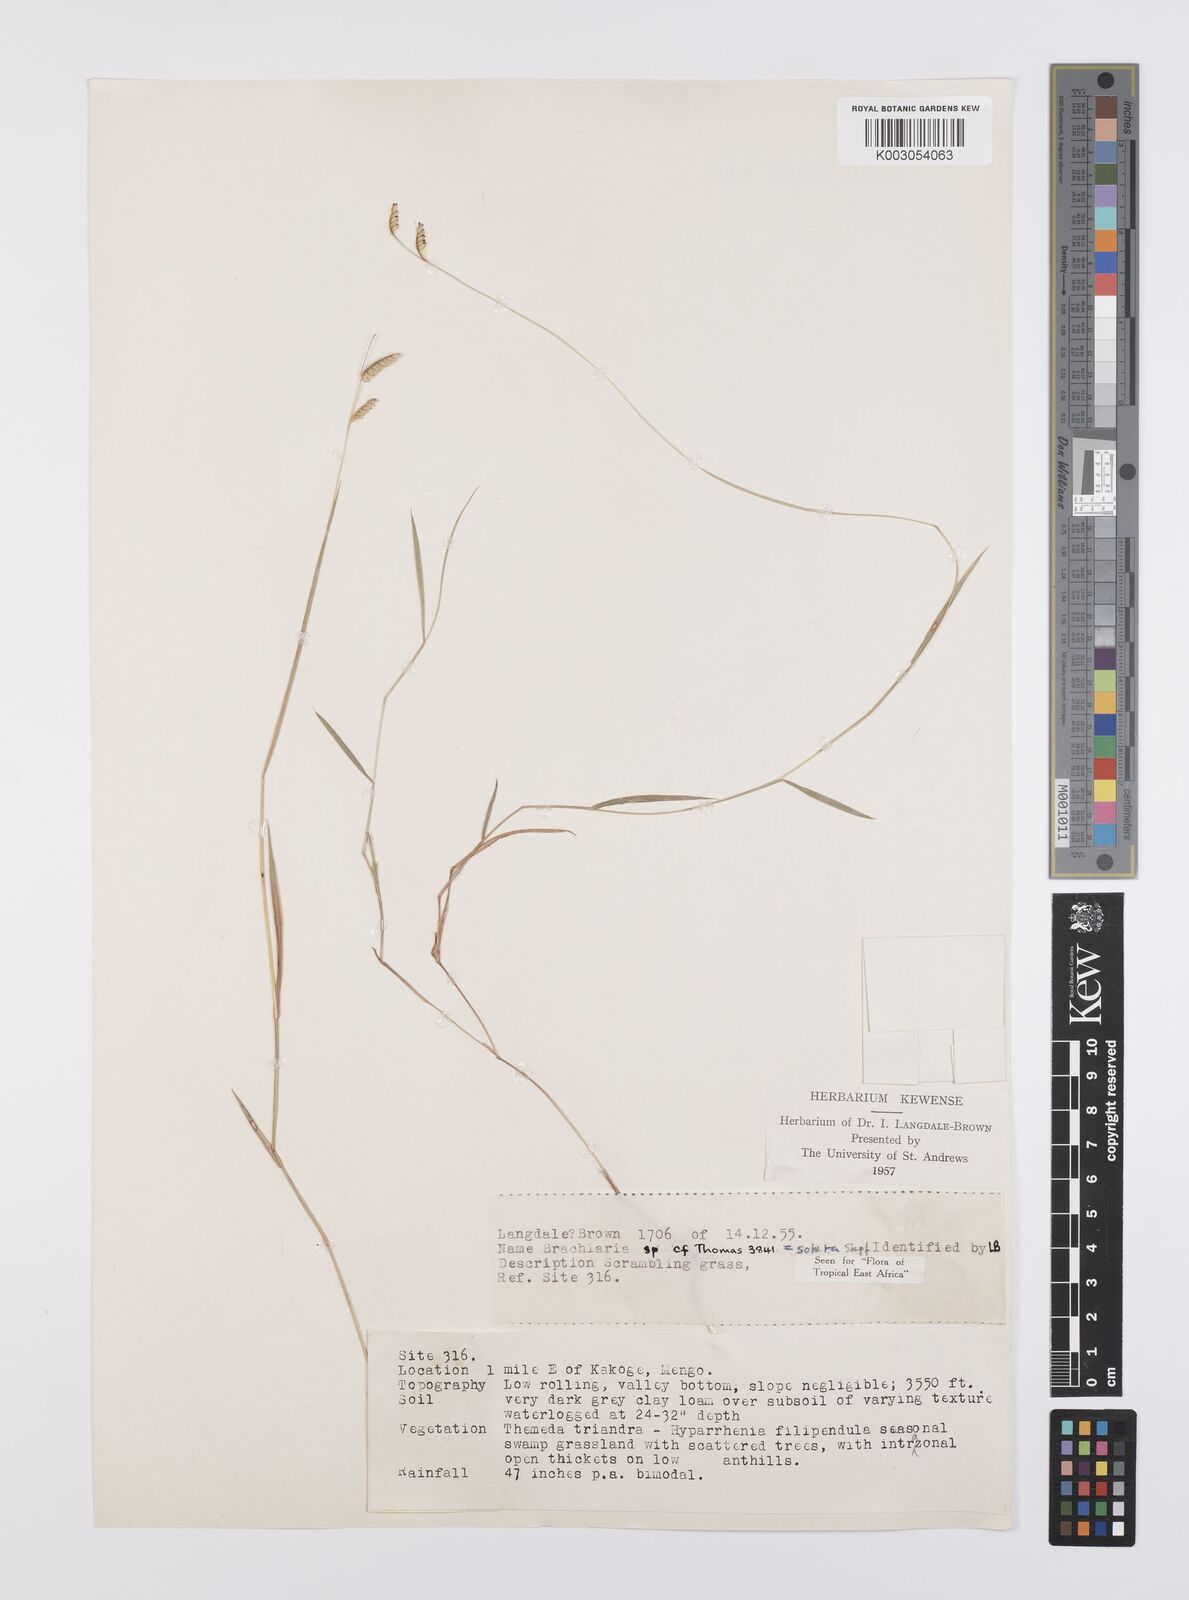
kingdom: Plantae
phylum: Tracheophyta
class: Liliopsida
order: Poales
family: Poaceae
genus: Urochloa
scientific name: Urochloa jubata
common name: Buffalograss
